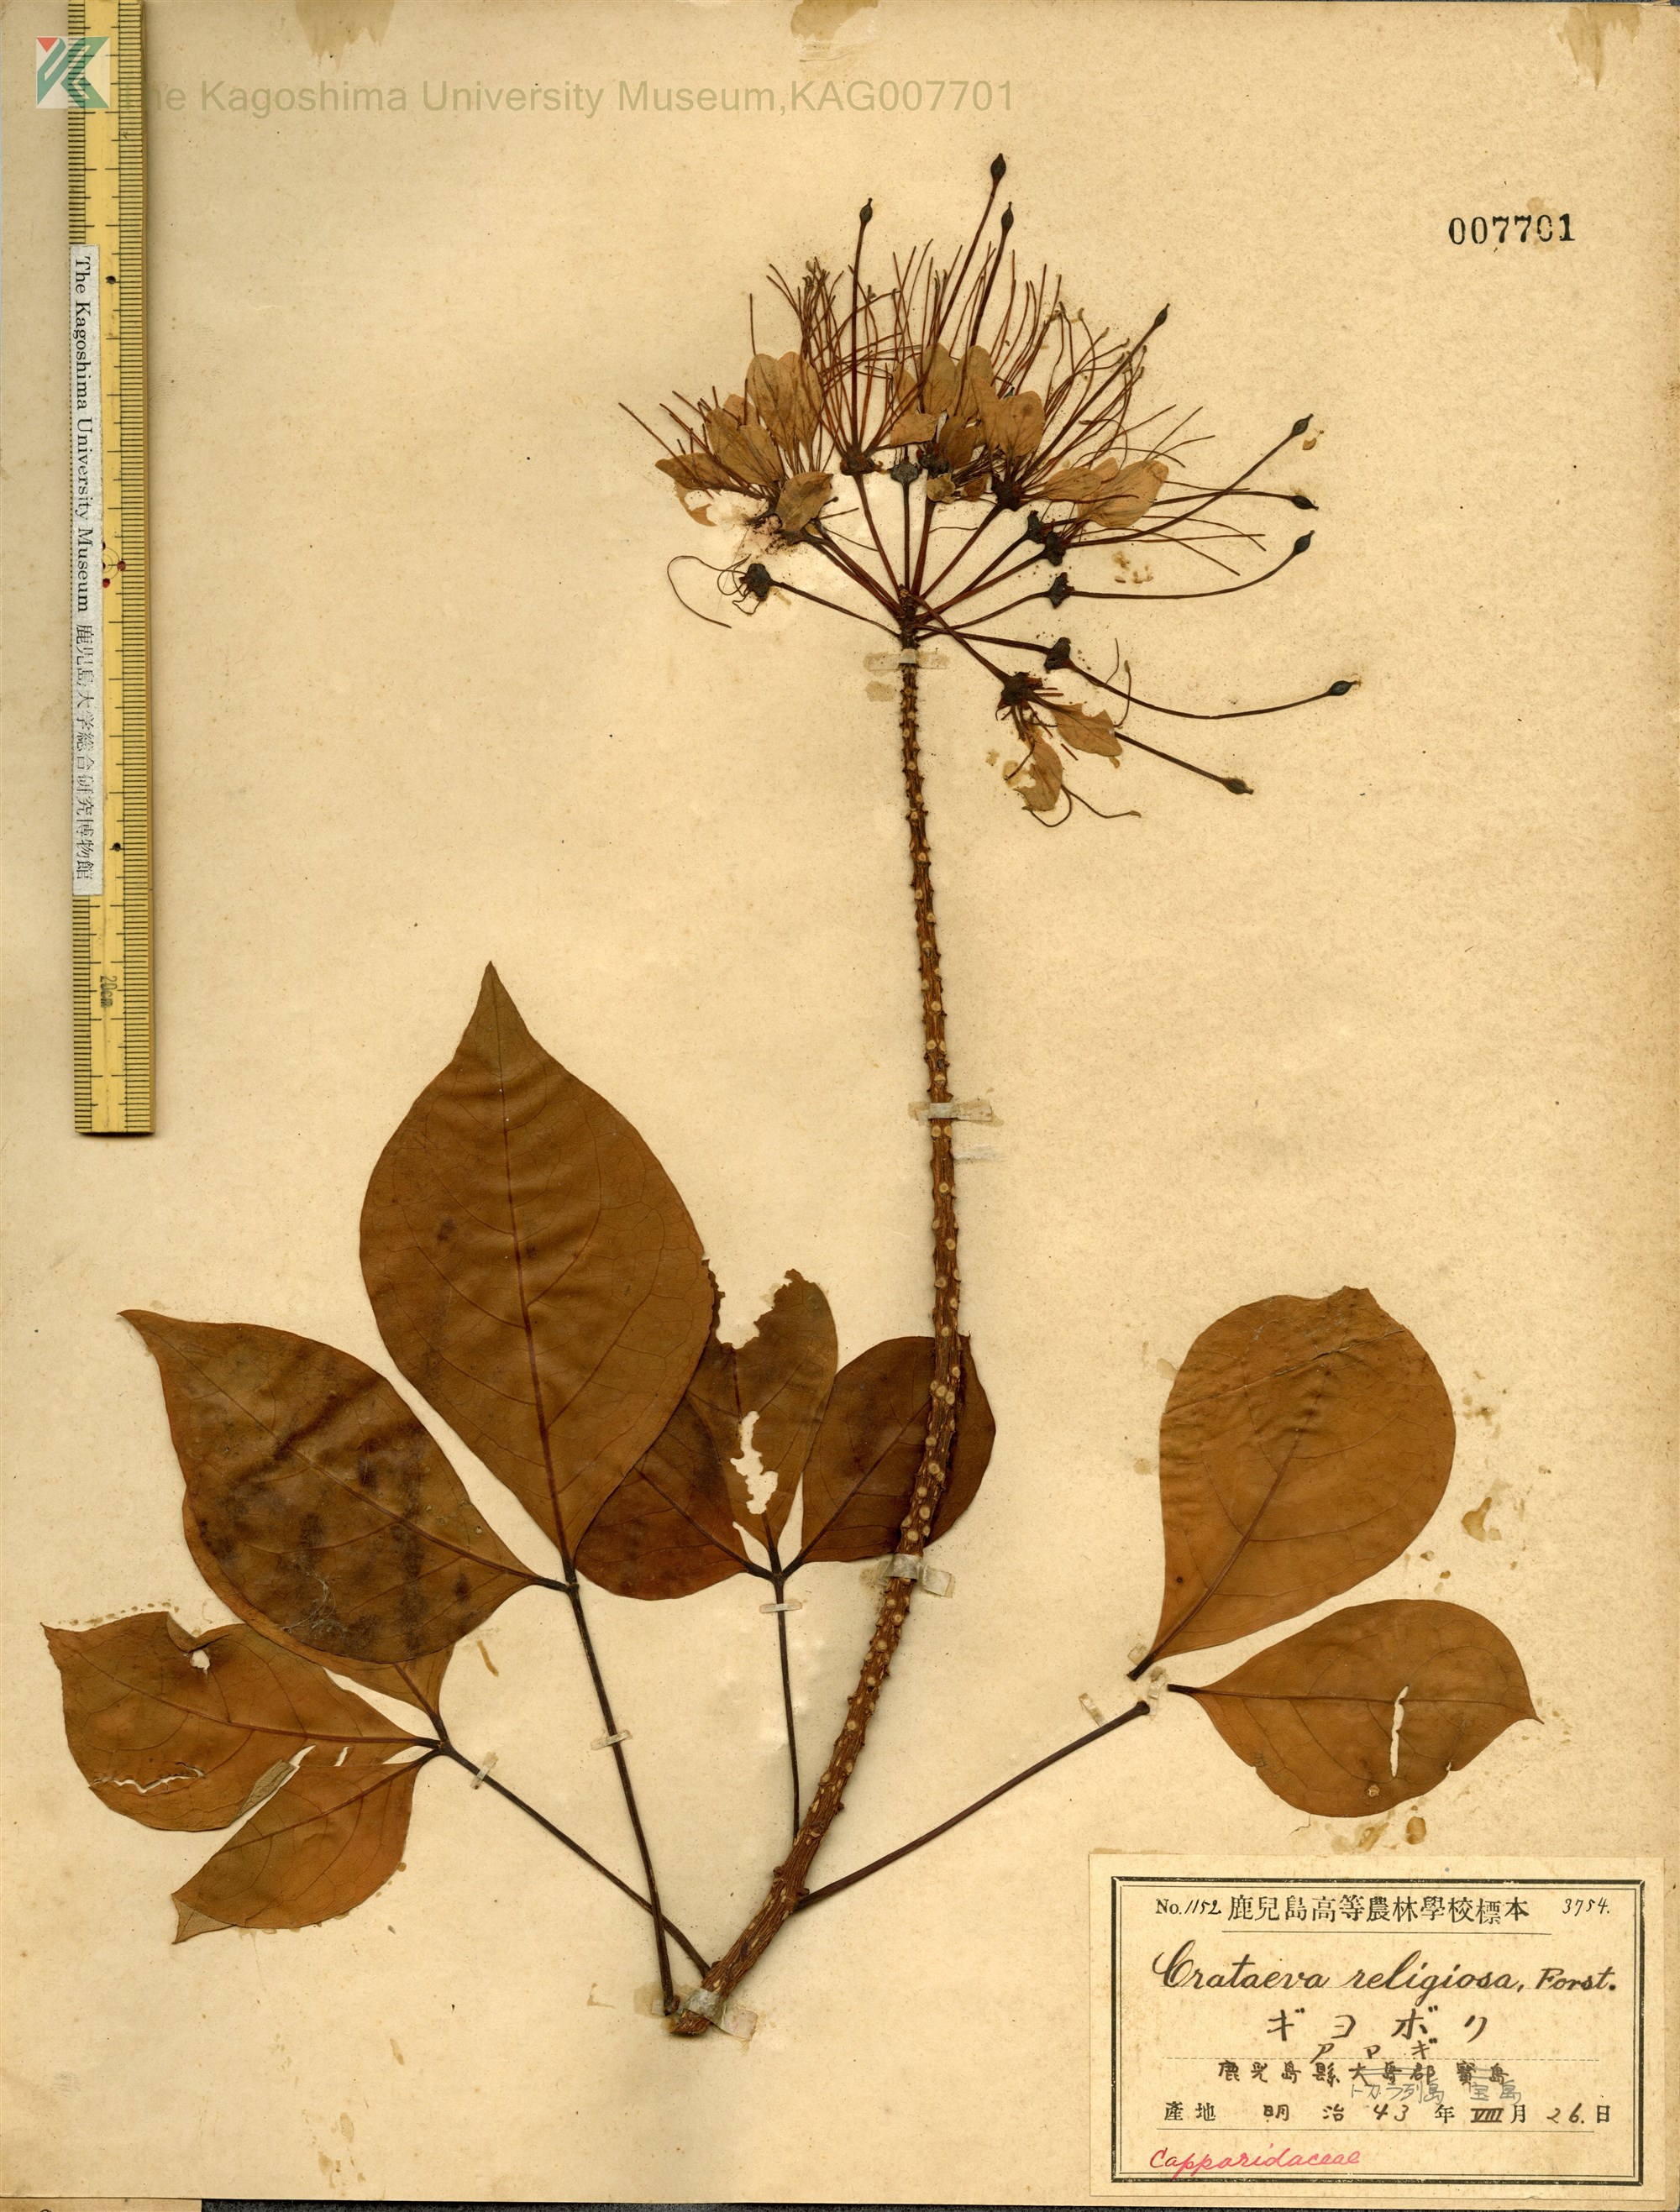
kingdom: Plantae
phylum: Tracheophyta
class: Magnoliopsida
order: Brassicales
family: Capparaceae
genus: Crateva
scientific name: Crateva formosensis
